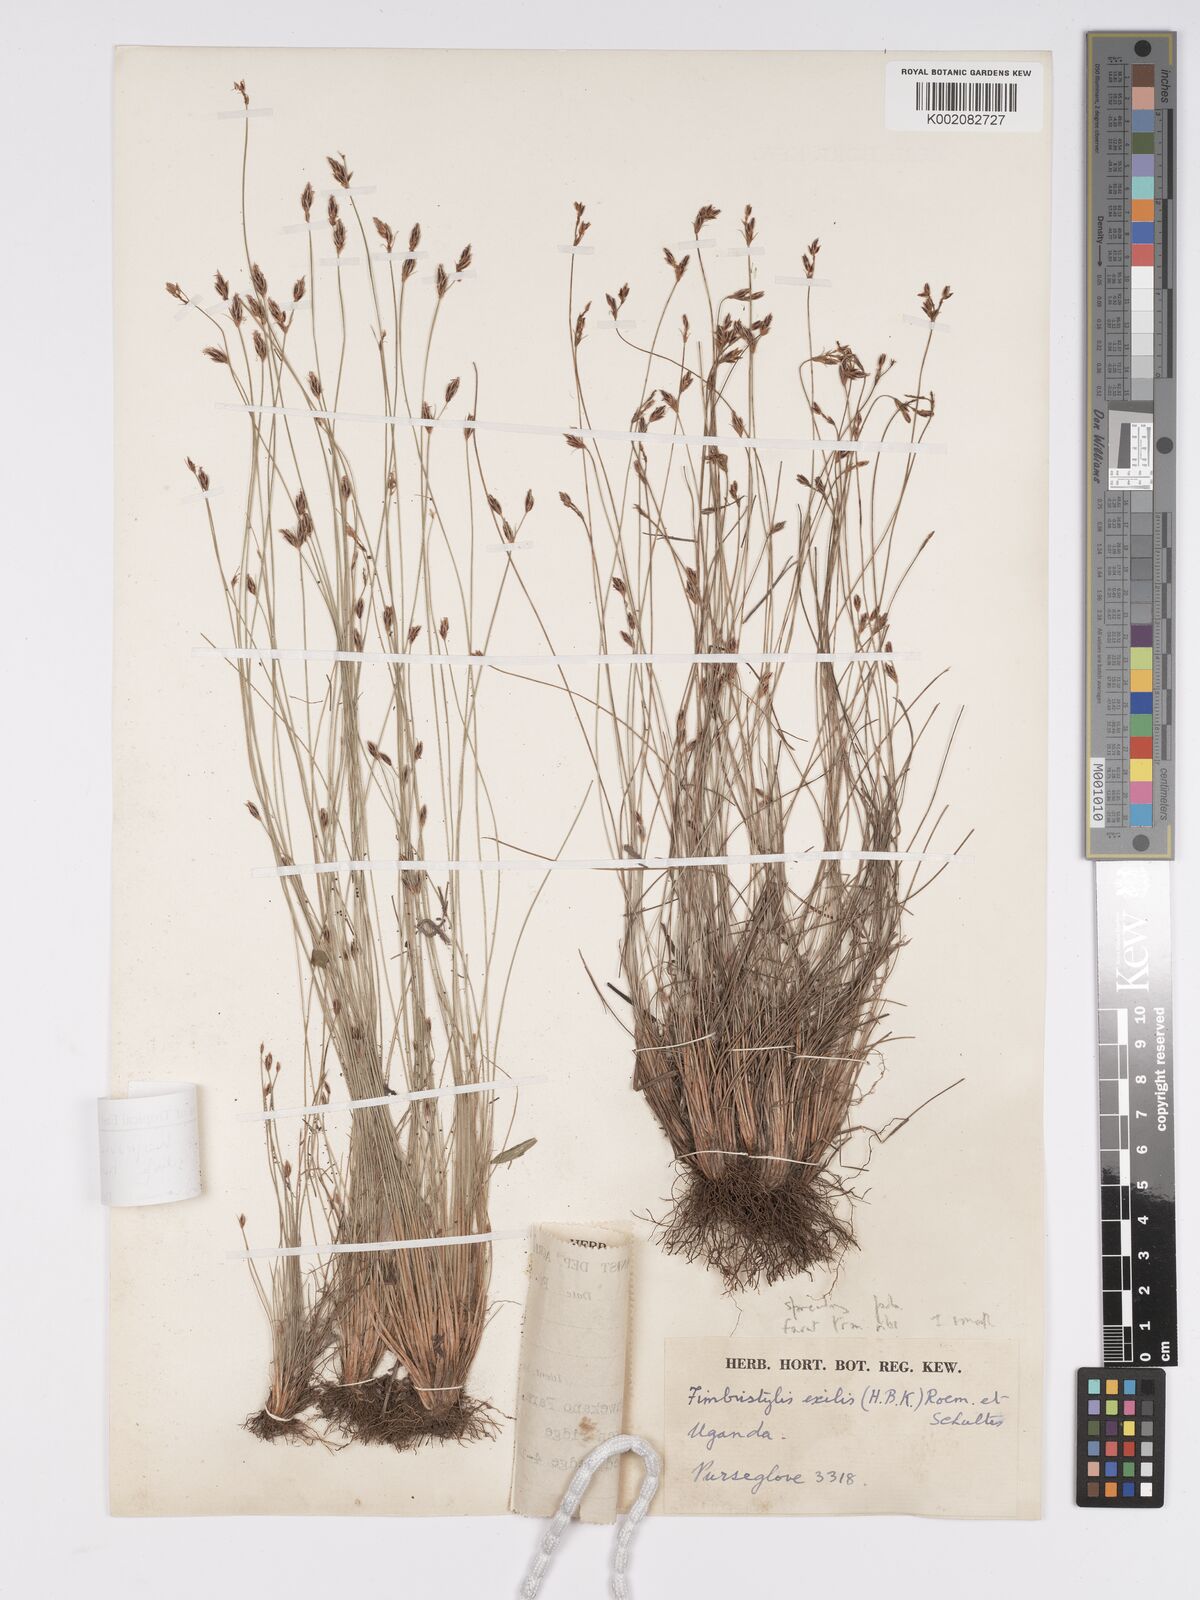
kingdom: Plantae
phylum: Tracheophyta
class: Liliopsida
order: Poales
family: Cyperaceae
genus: Bulbostylis
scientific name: Bulbostylis
